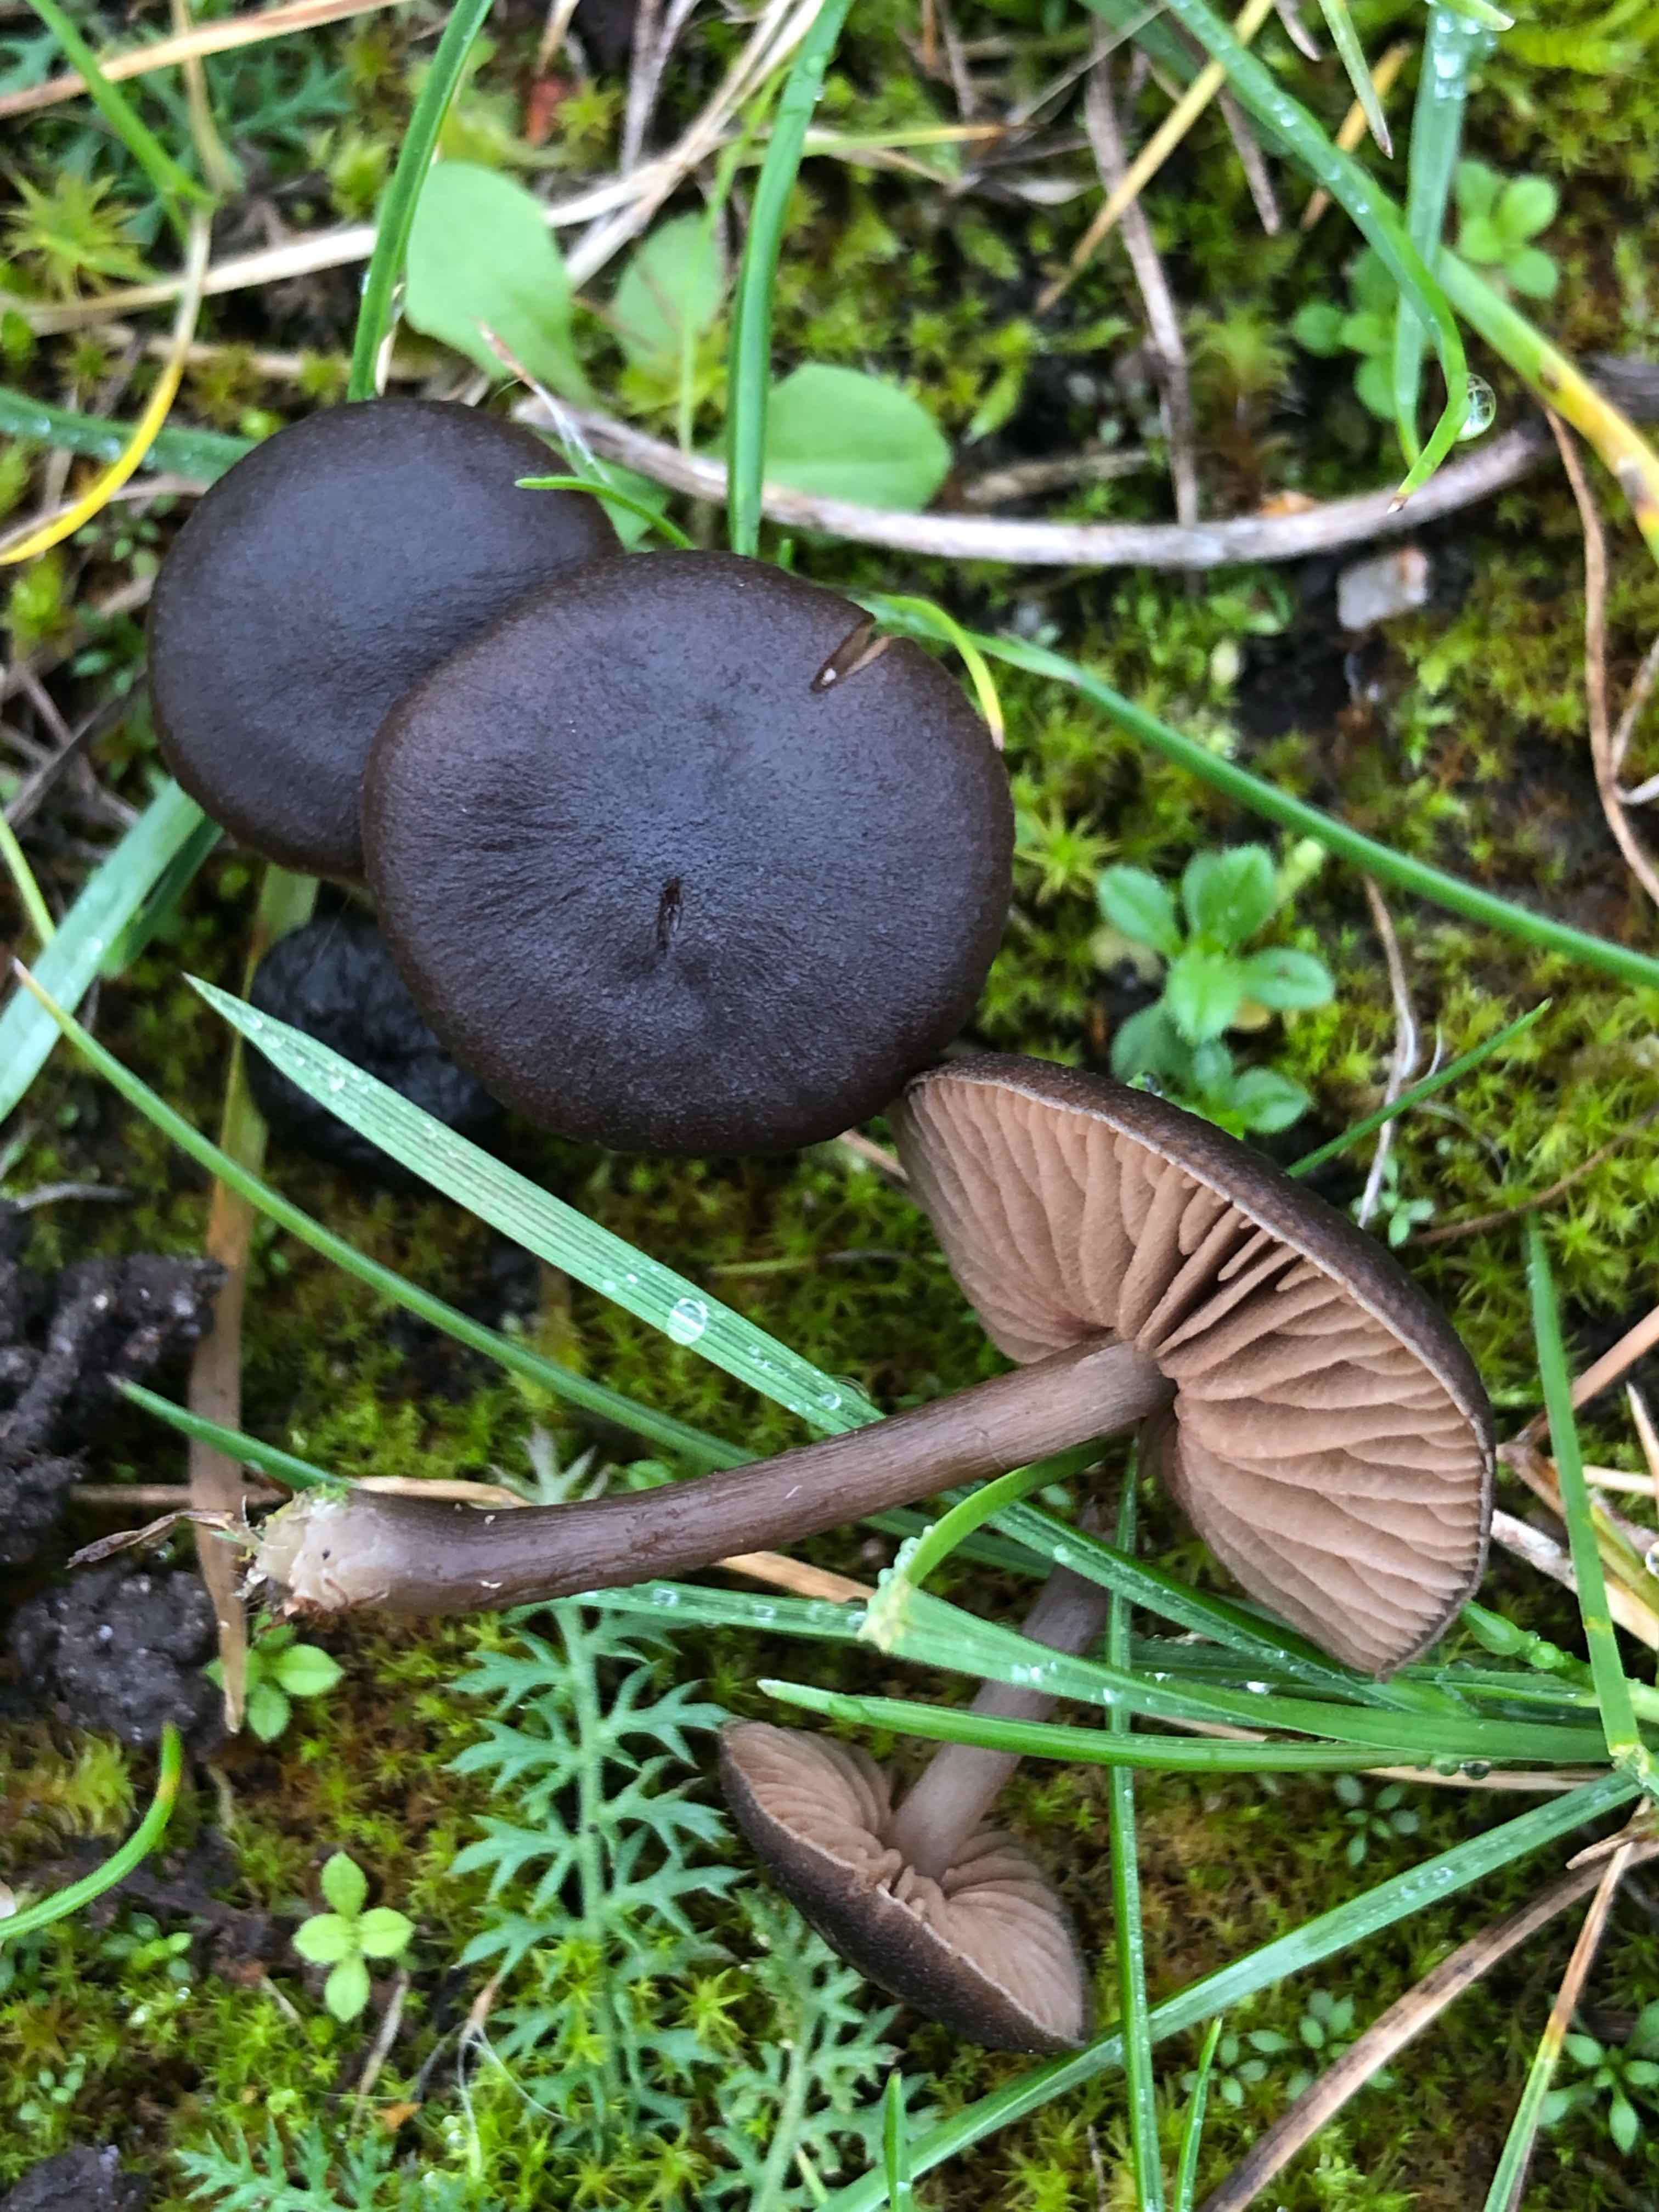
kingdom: Fungi
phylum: Basidiomycota
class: Agaricomycetes
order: Agaricales
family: Entolomataceae
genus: Entoloma
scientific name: Entoloma
